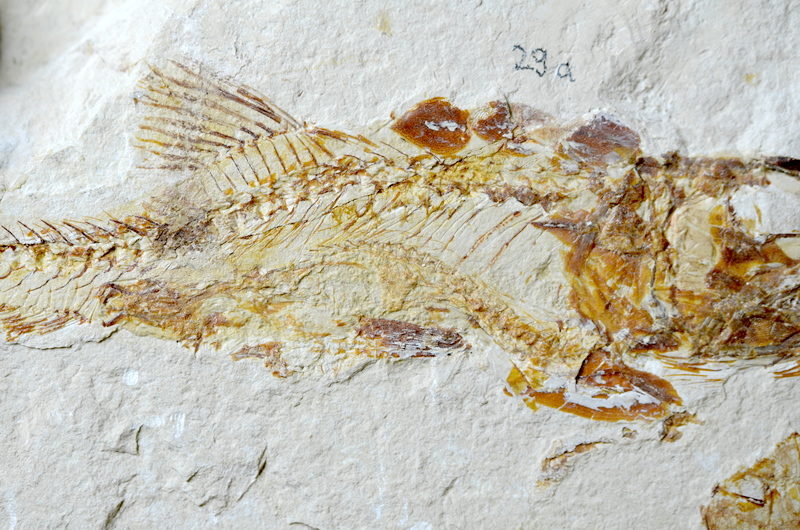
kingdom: Animalia
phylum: Chordata
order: Salmoniformes
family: Eurypholidae
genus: Eurypholis
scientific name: Eurypholis boissieri
